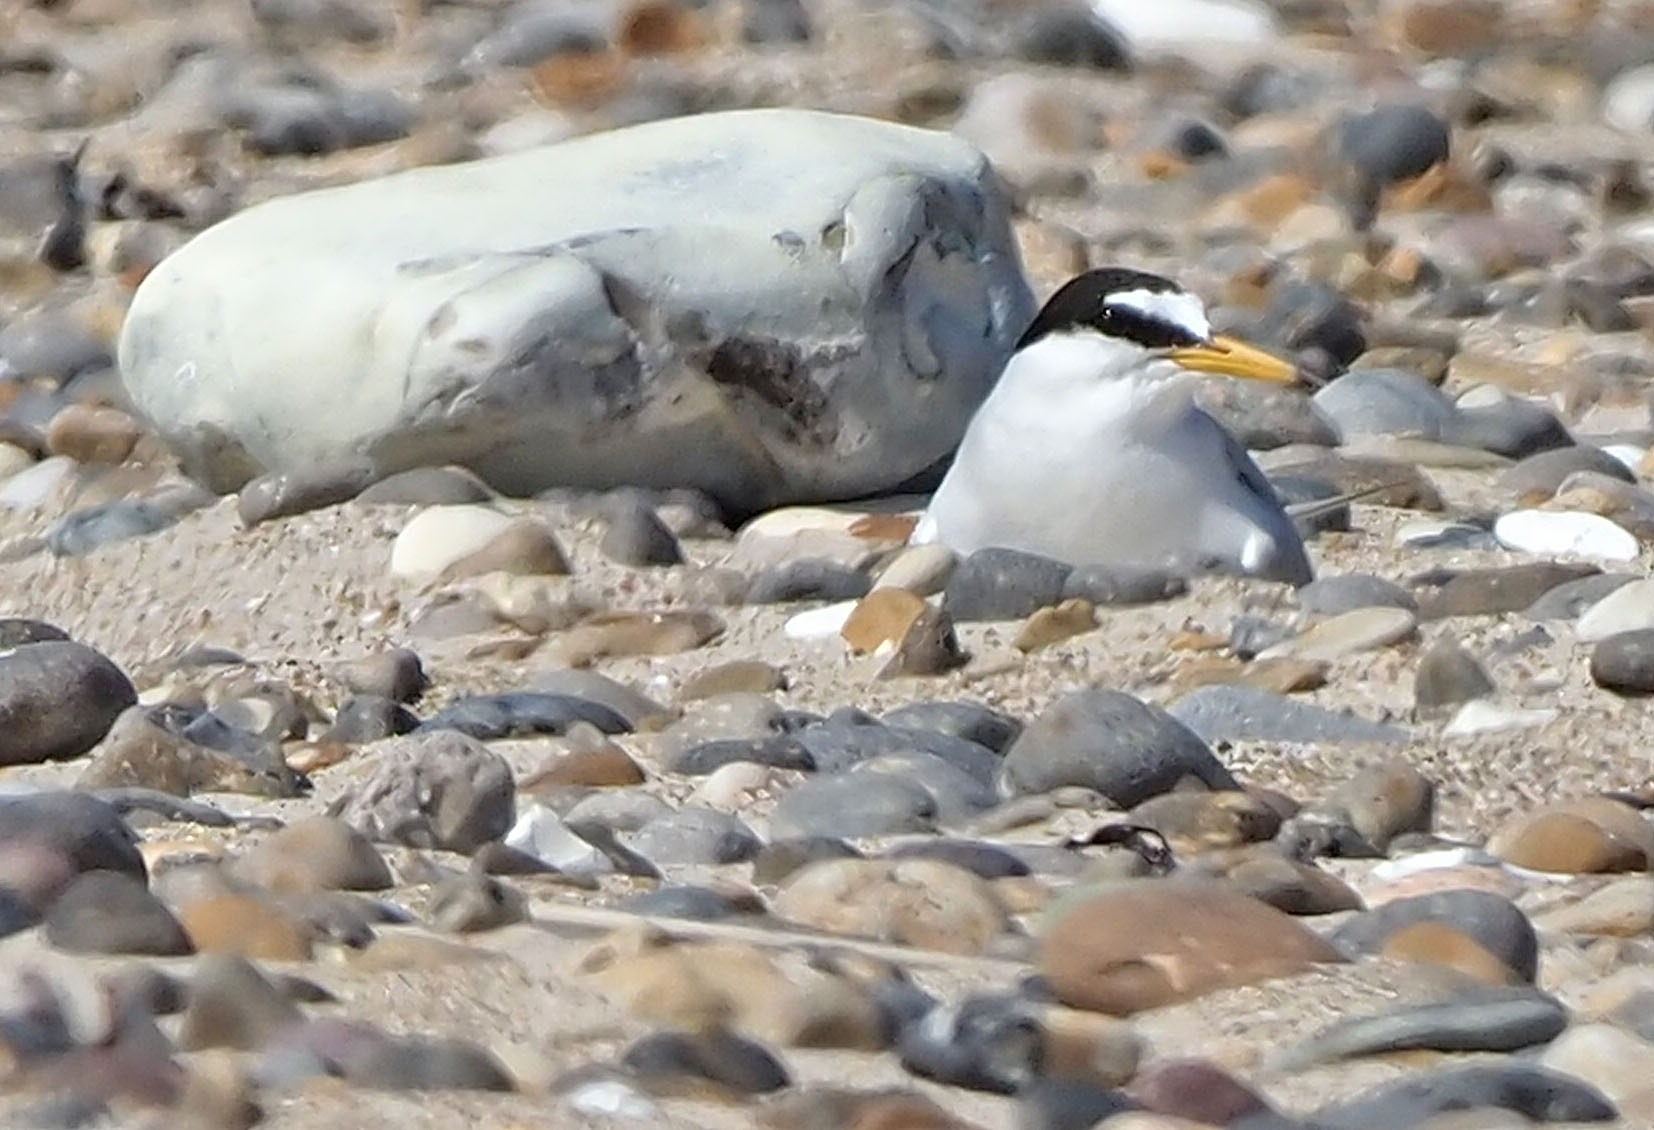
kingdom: Animalia
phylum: Chordata
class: Aves
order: Charadriiformes
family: Laridae
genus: Sternula
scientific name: Sternula albifrons
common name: Dværgterne
